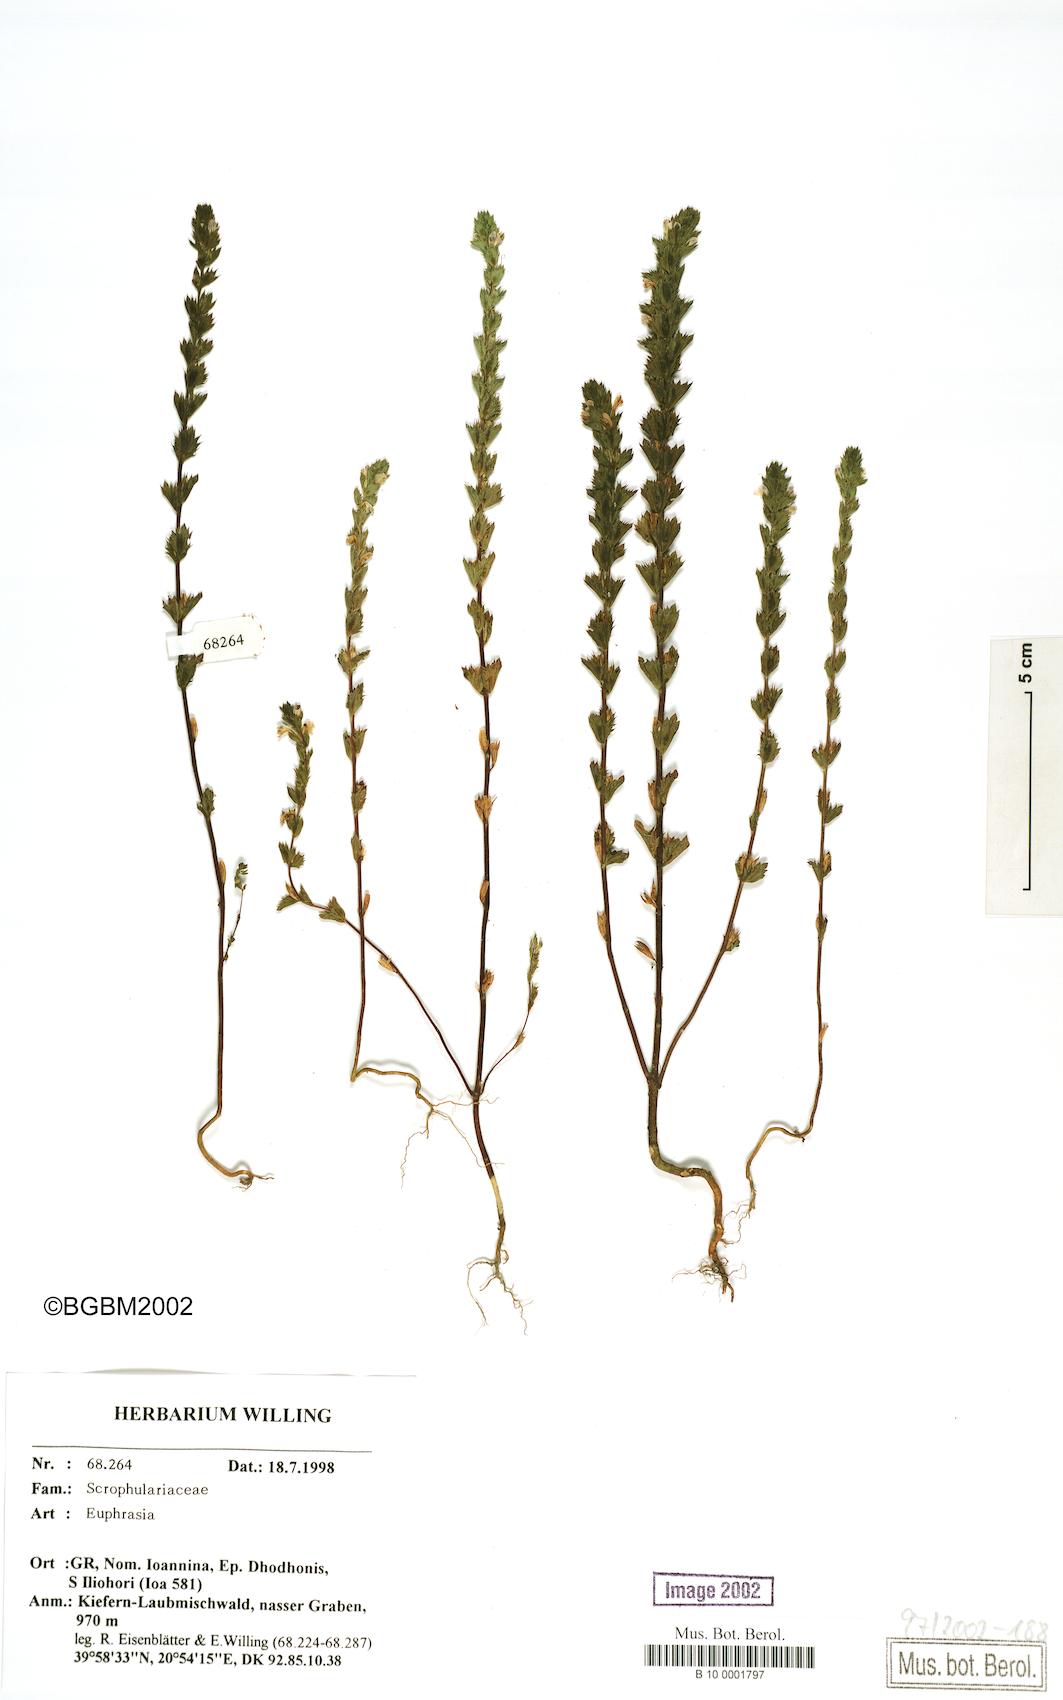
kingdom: Plantae
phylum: Tracheophyta
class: Magnoliopsida
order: Lamiales
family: Orobanchaceae
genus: Euphrasia
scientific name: Euphrasia
